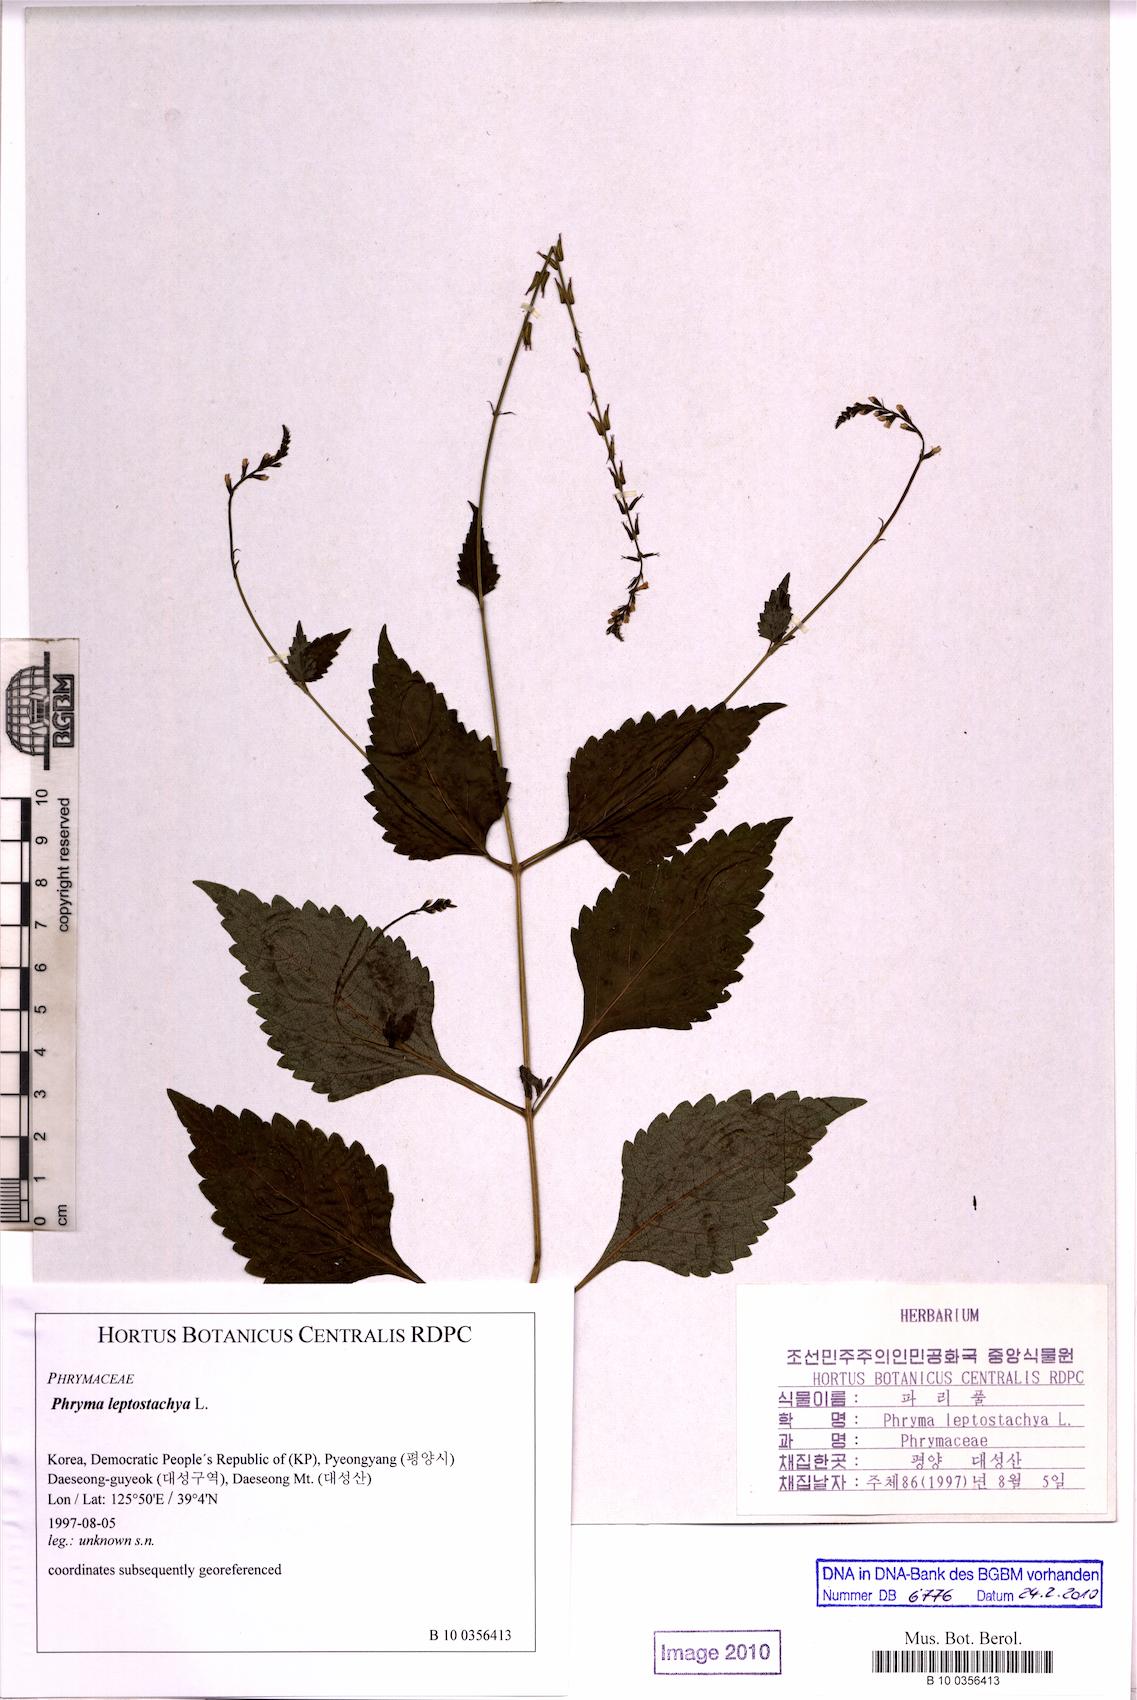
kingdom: Plantae
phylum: Tracheophyta
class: Magnoliopsida
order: Lamiales
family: Phrymaceae
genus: Phryma
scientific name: Phryma leptostachya
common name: American lopseed
